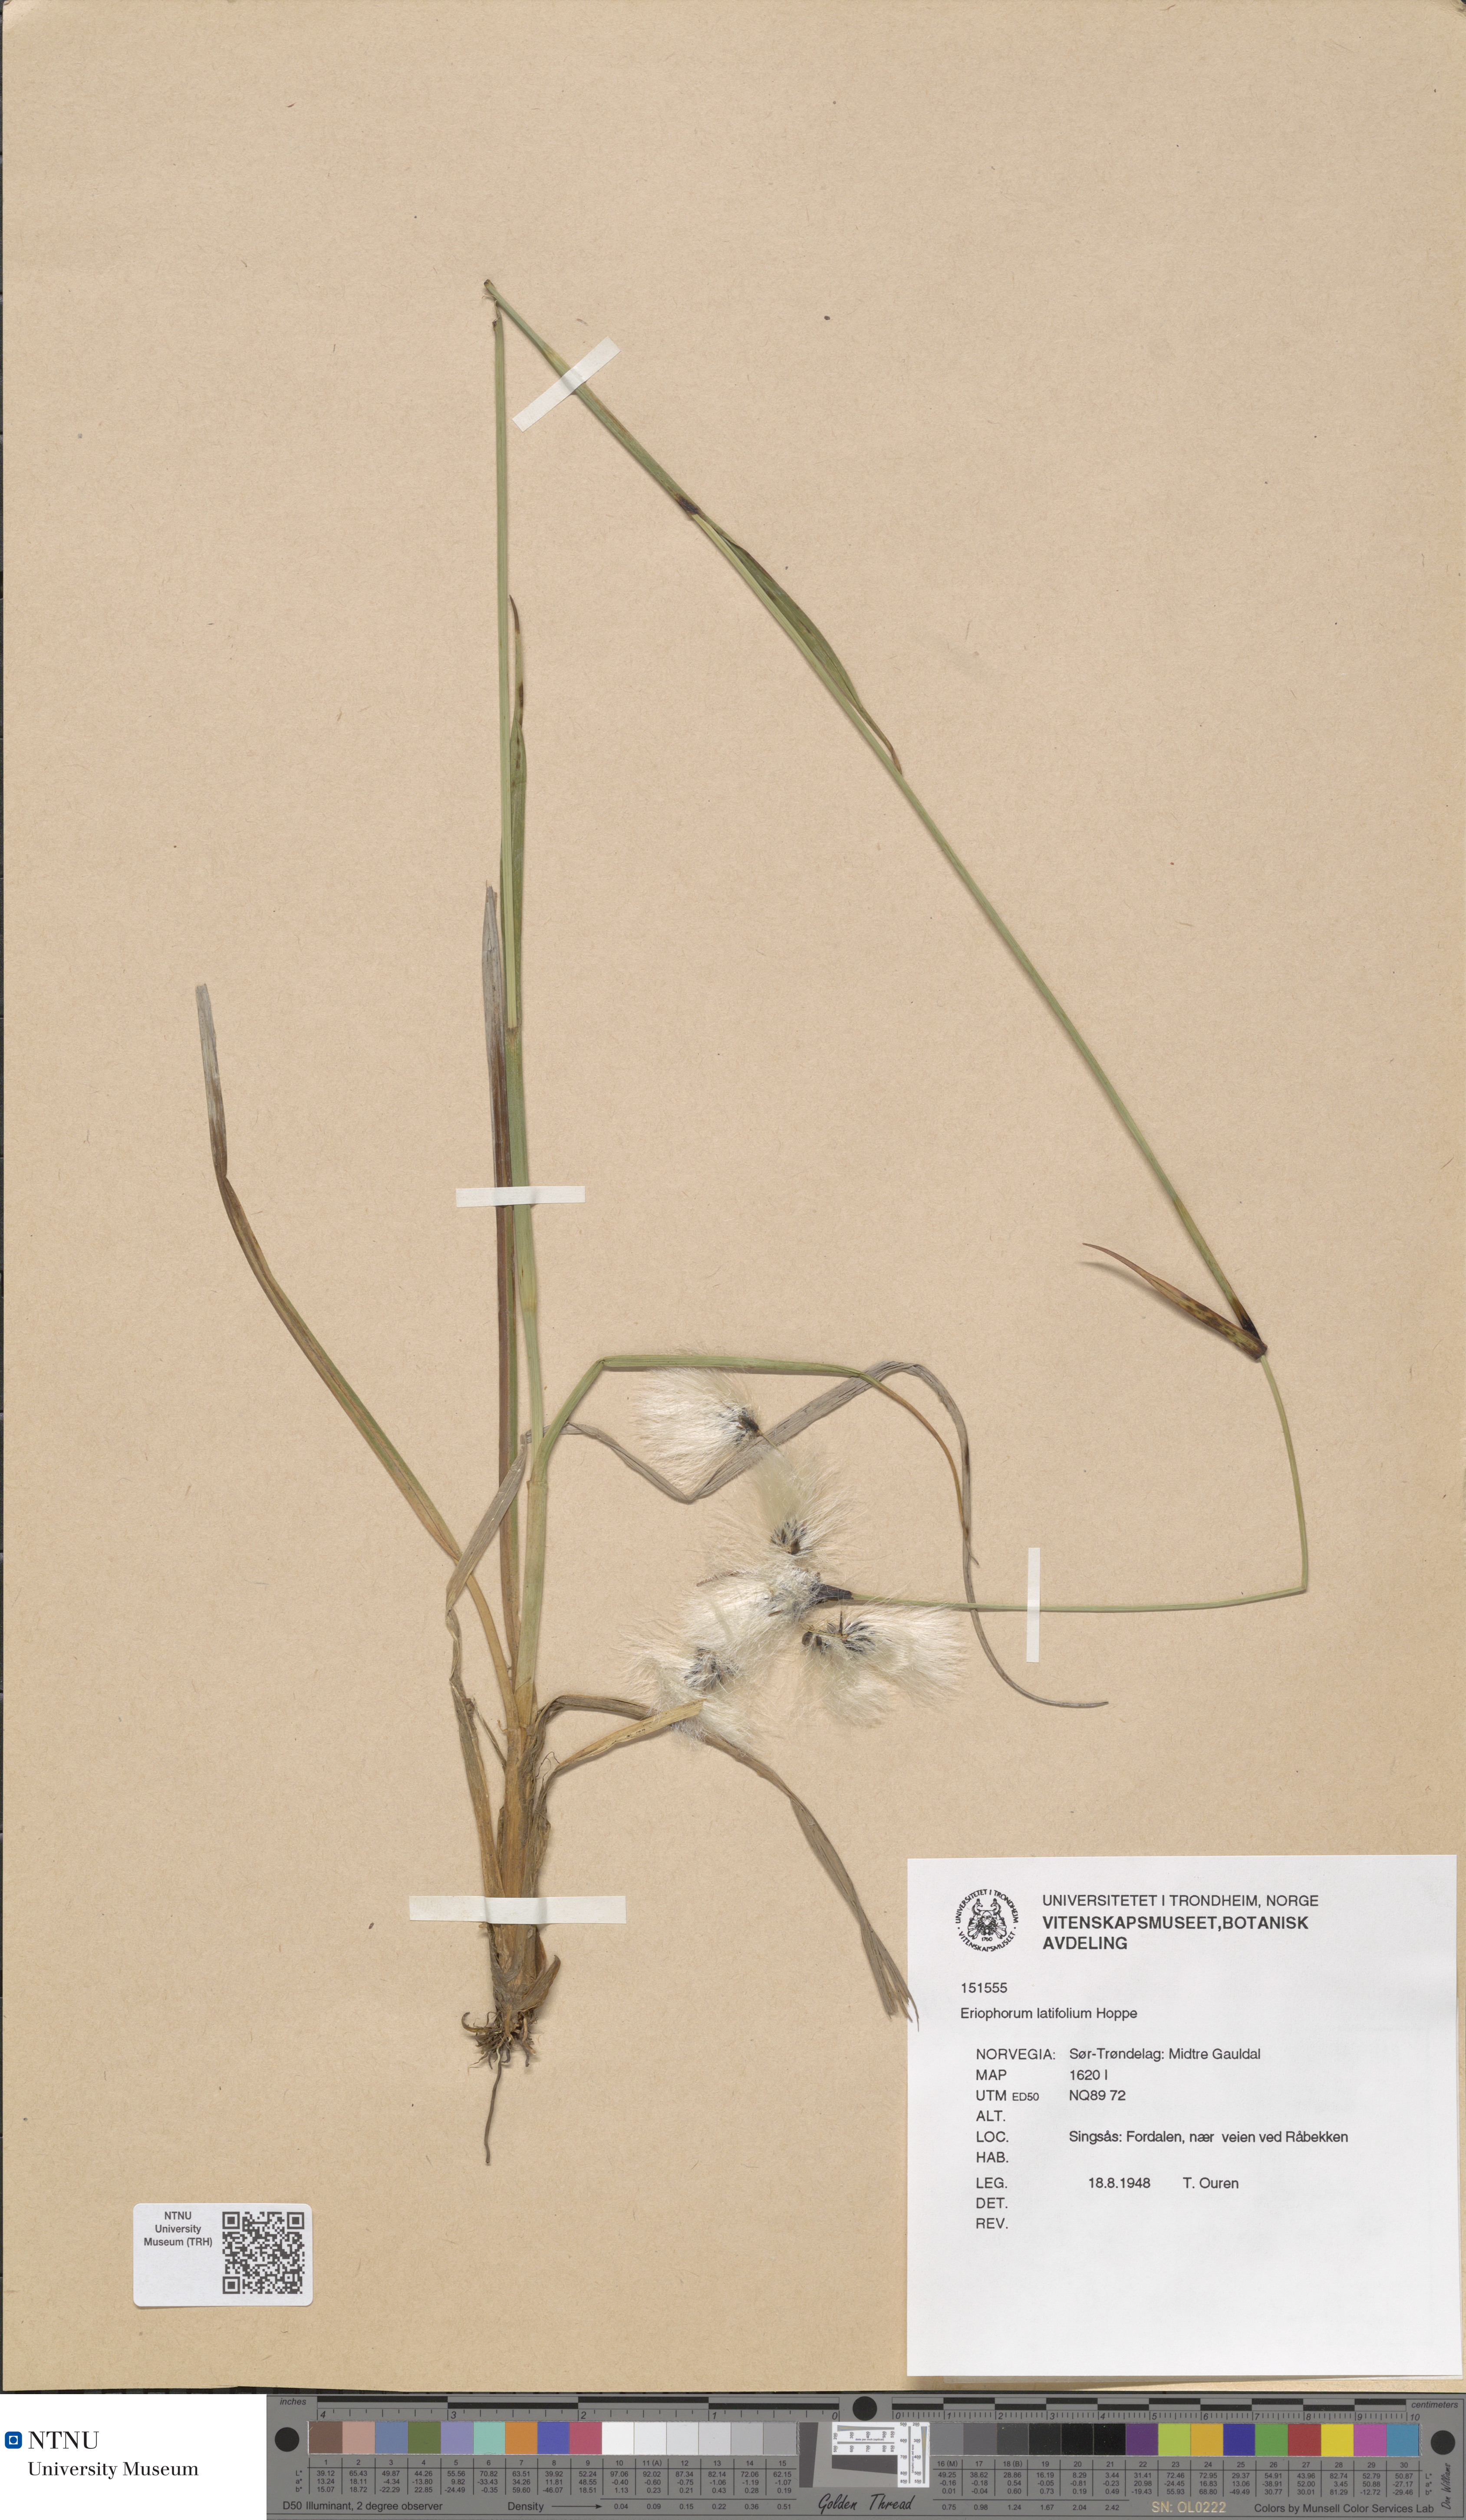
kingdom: Plantae
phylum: Tracheophyta
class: Liliopsida
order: Poales
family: Cyperaceae
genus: Eriophorum
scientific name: Eriophorum latifolium
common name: Broad-leaved cottongrass
